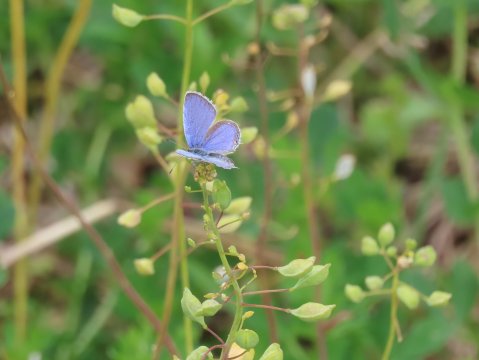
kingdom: Animalia
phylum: Arthropoda
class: Insecta
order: Lepidoptera
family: Lycaenidae
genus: Elkalyce
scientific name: Elkalyce comyntas
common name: Eastern Tailed-Blue
